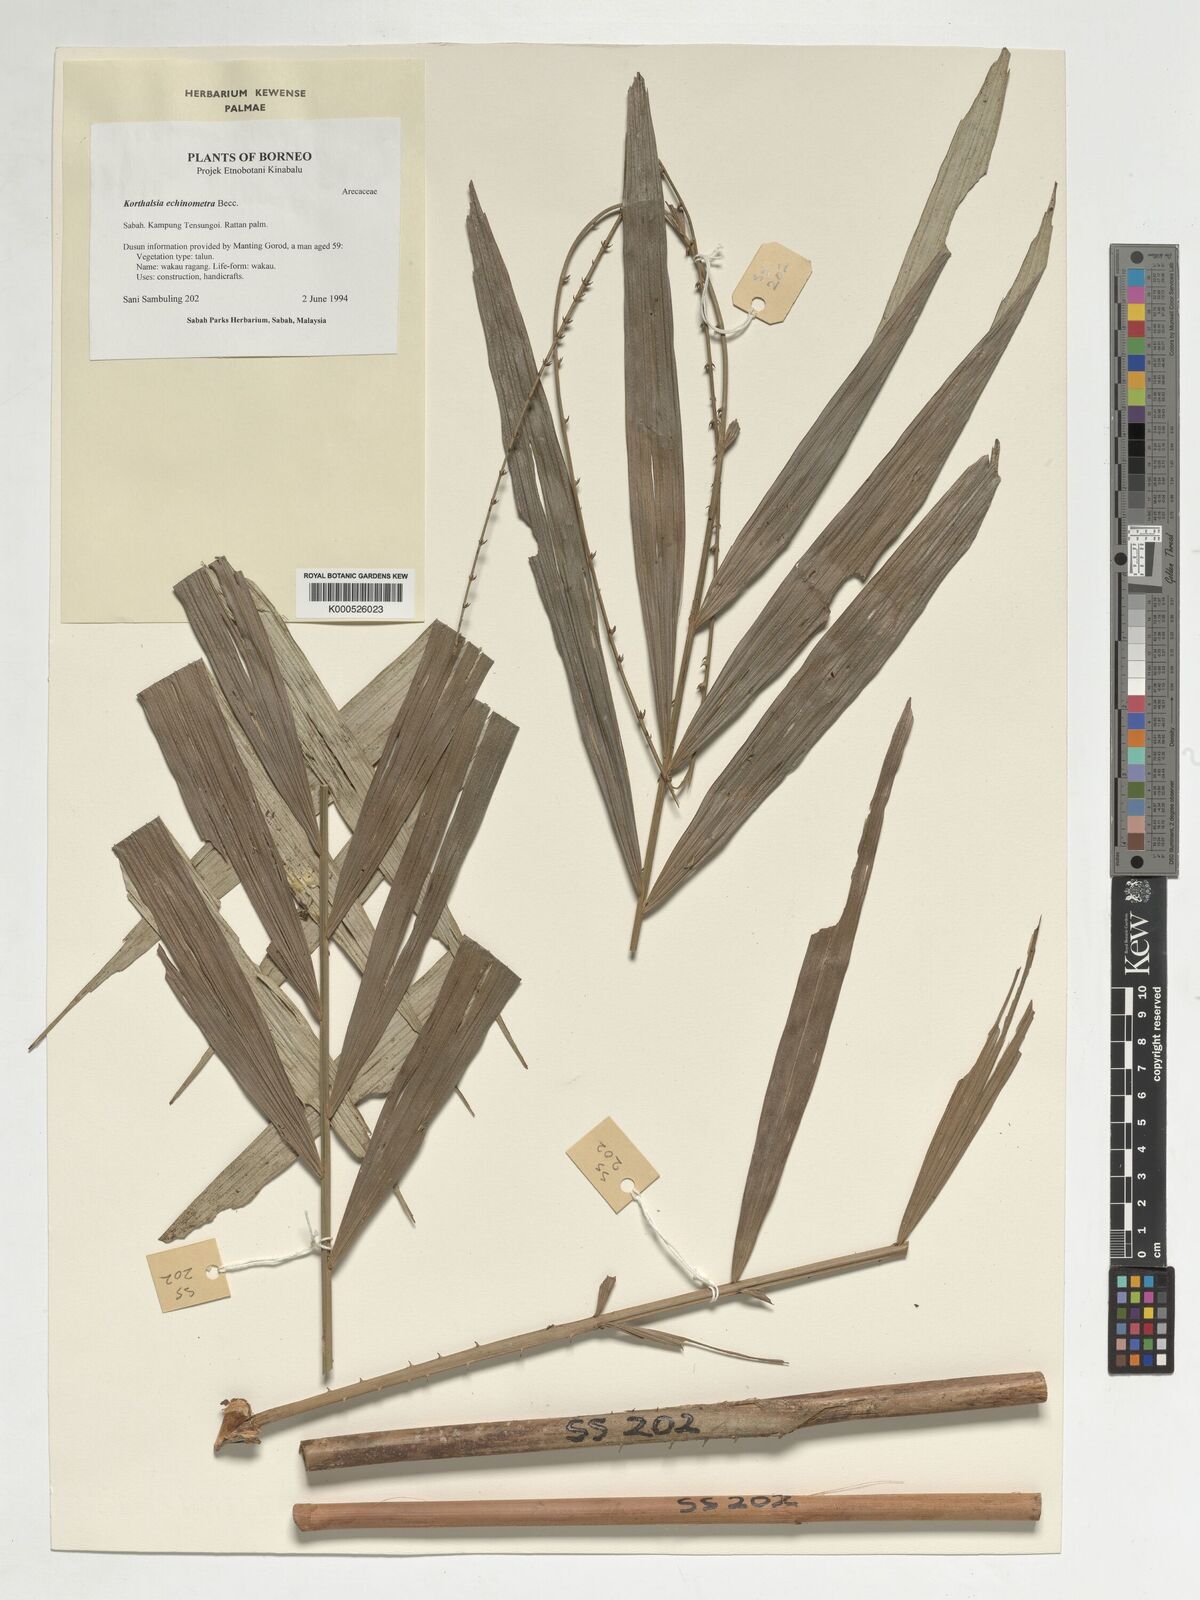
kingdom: Plantae
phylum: Tracheophyta
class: Liliopsida
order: Arecales
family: Arecaceae
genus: Korthalsia
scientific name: Korthalsia echinometra
